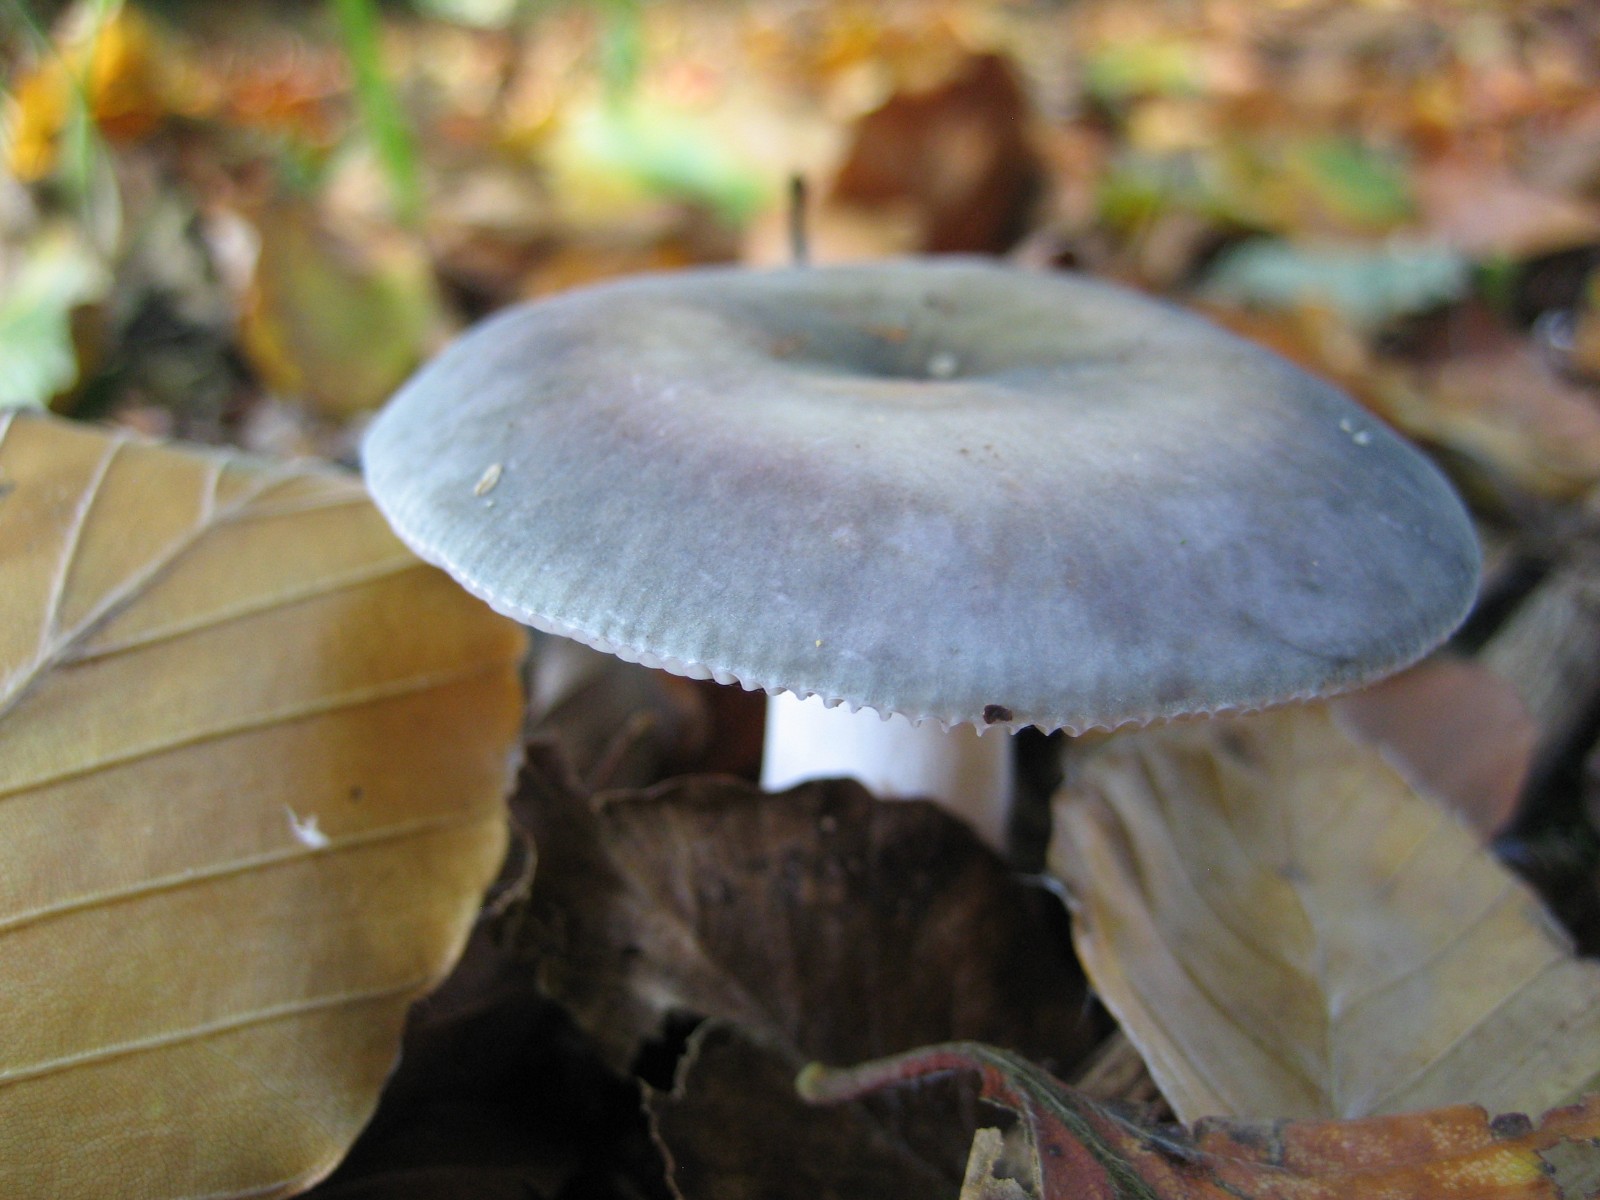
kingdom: Fungi
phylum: Basidiomycota
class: Agaricomycetes
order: Russulales
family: Russulaceae
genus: Russula
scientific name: Russula
